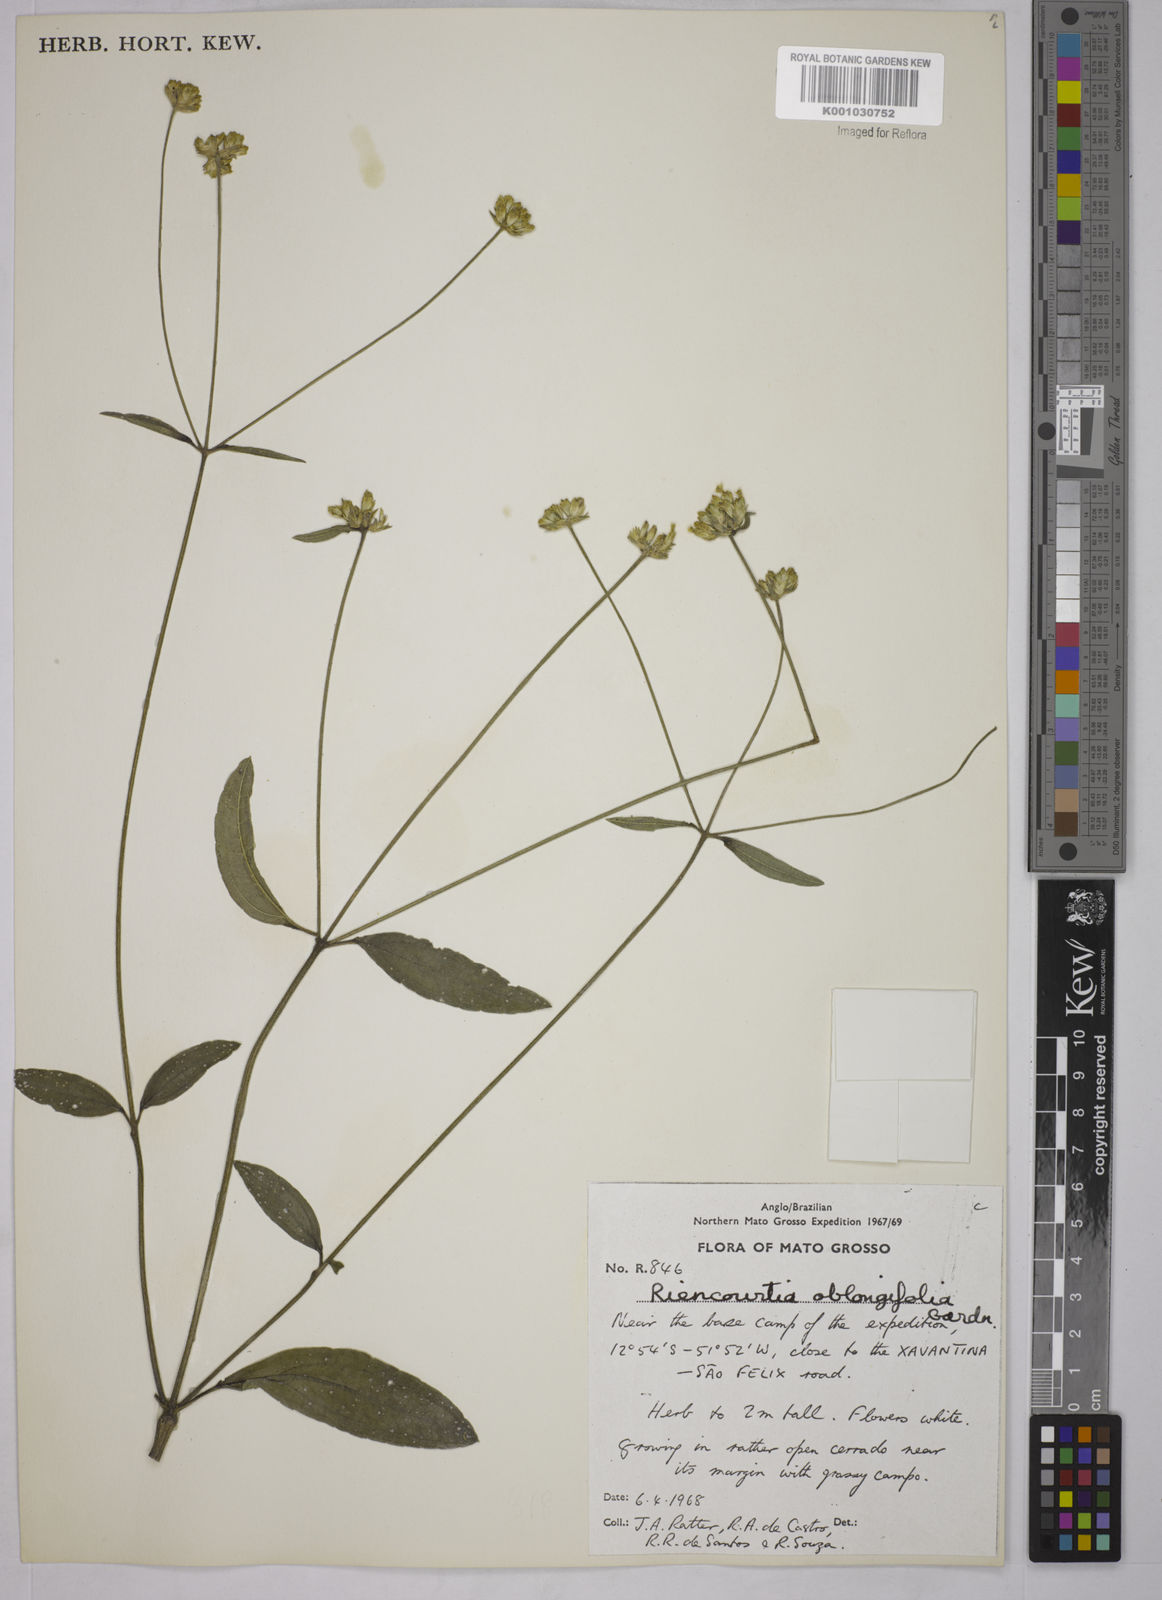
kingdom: Plantae
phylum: Tracheophyta
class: Magnoliopsida
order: Asterales
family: Asteraceae
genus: Riencourtia
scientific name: Riencourtia oblongifolia
